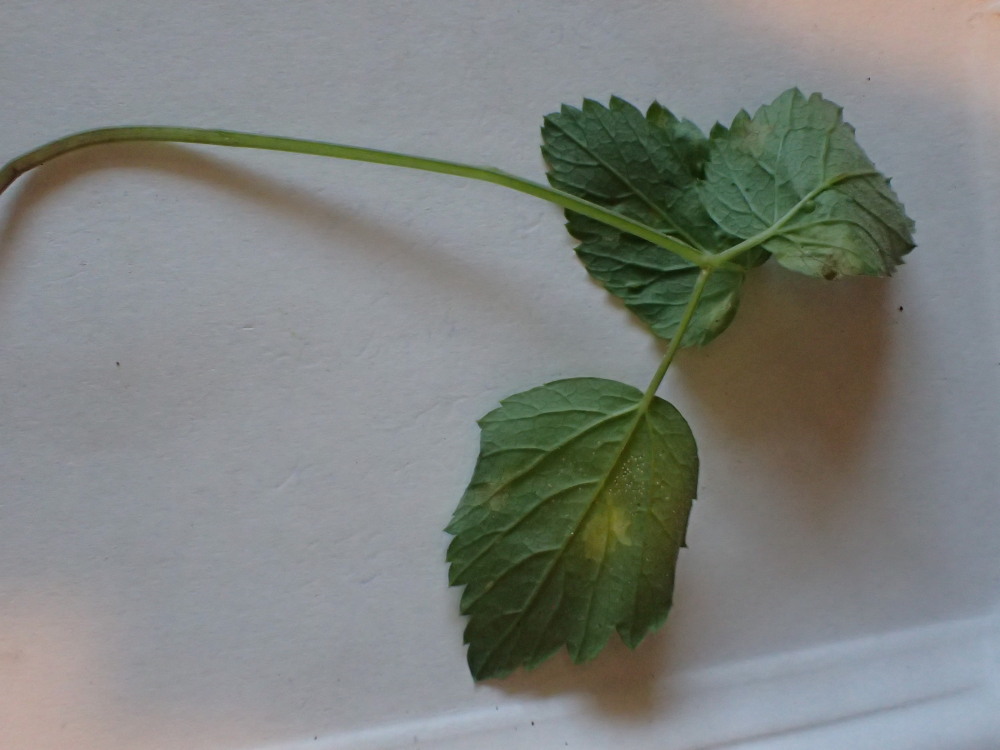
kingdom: Chromista
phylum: Oomycota
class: Peronosporea
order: Peronosporales
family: Peronosporaceae
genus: Peronospora
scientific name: Peronospora crustosa
